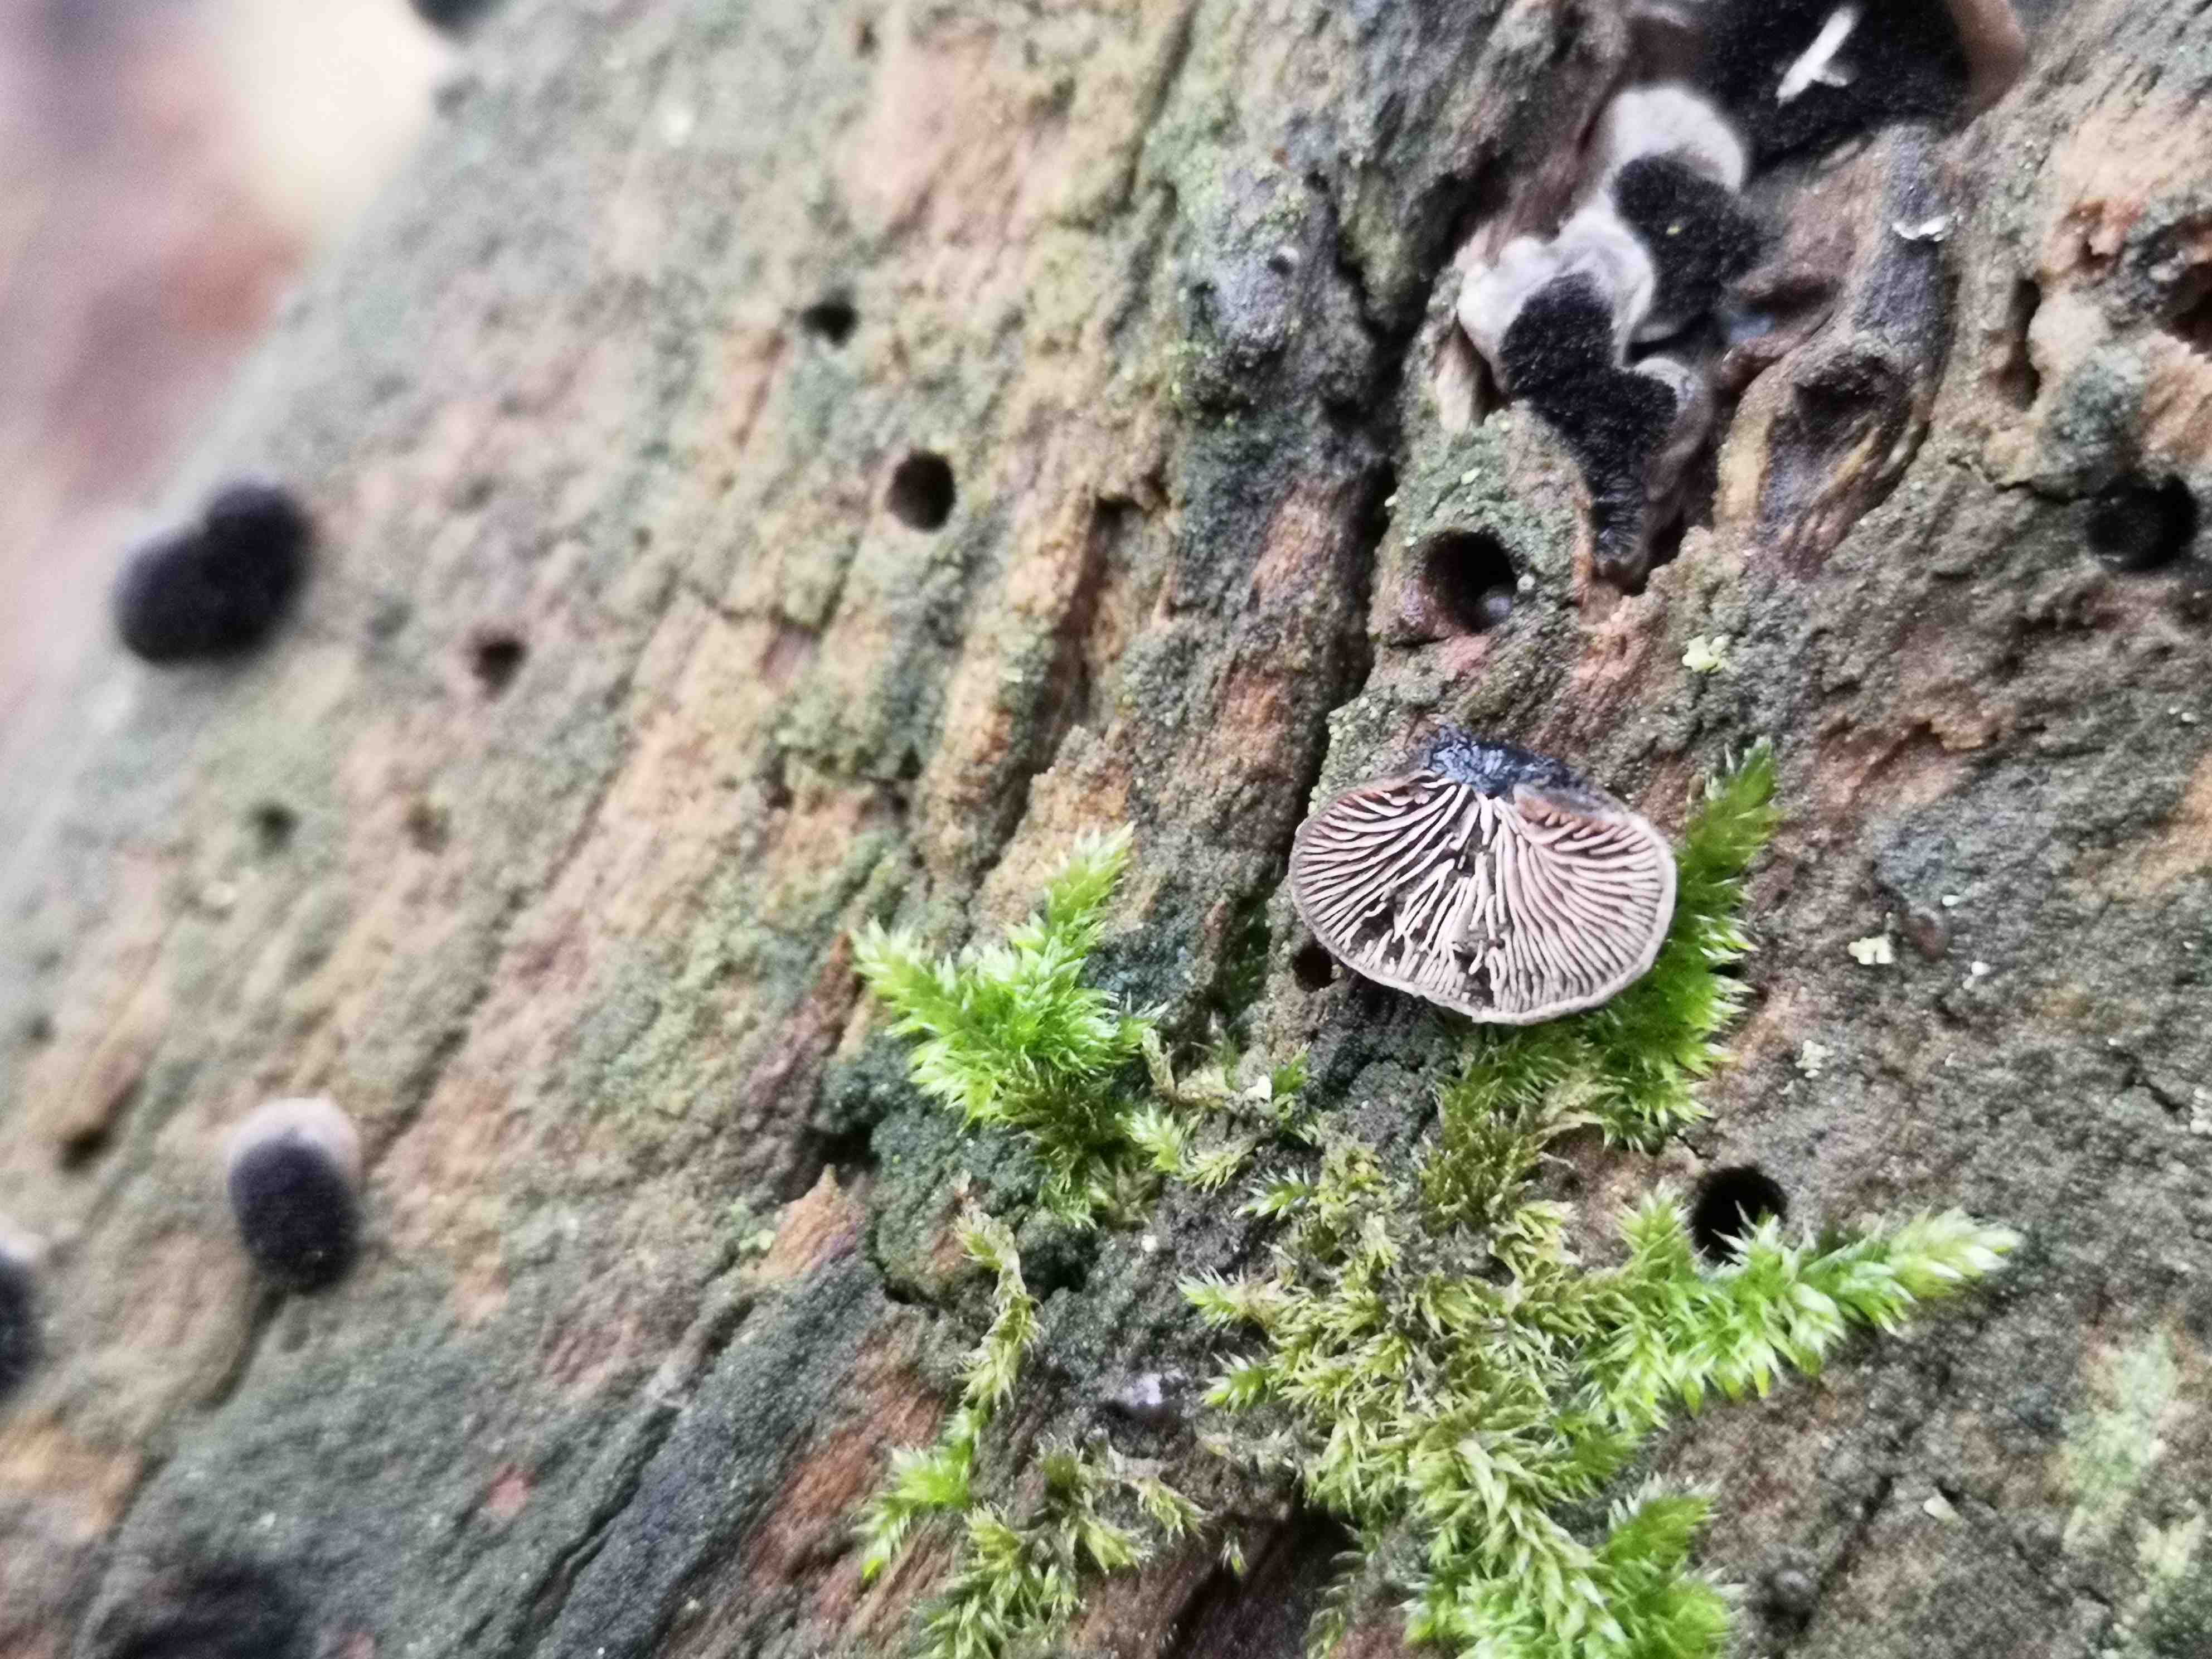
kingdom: Fungi
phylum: Basidiomycota
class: Agaricomycetes
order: Agaricales
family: Pleurotaceae
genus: Resupinatus
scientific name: Resupinatus trichotis
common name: mørkfiltet barkhat
